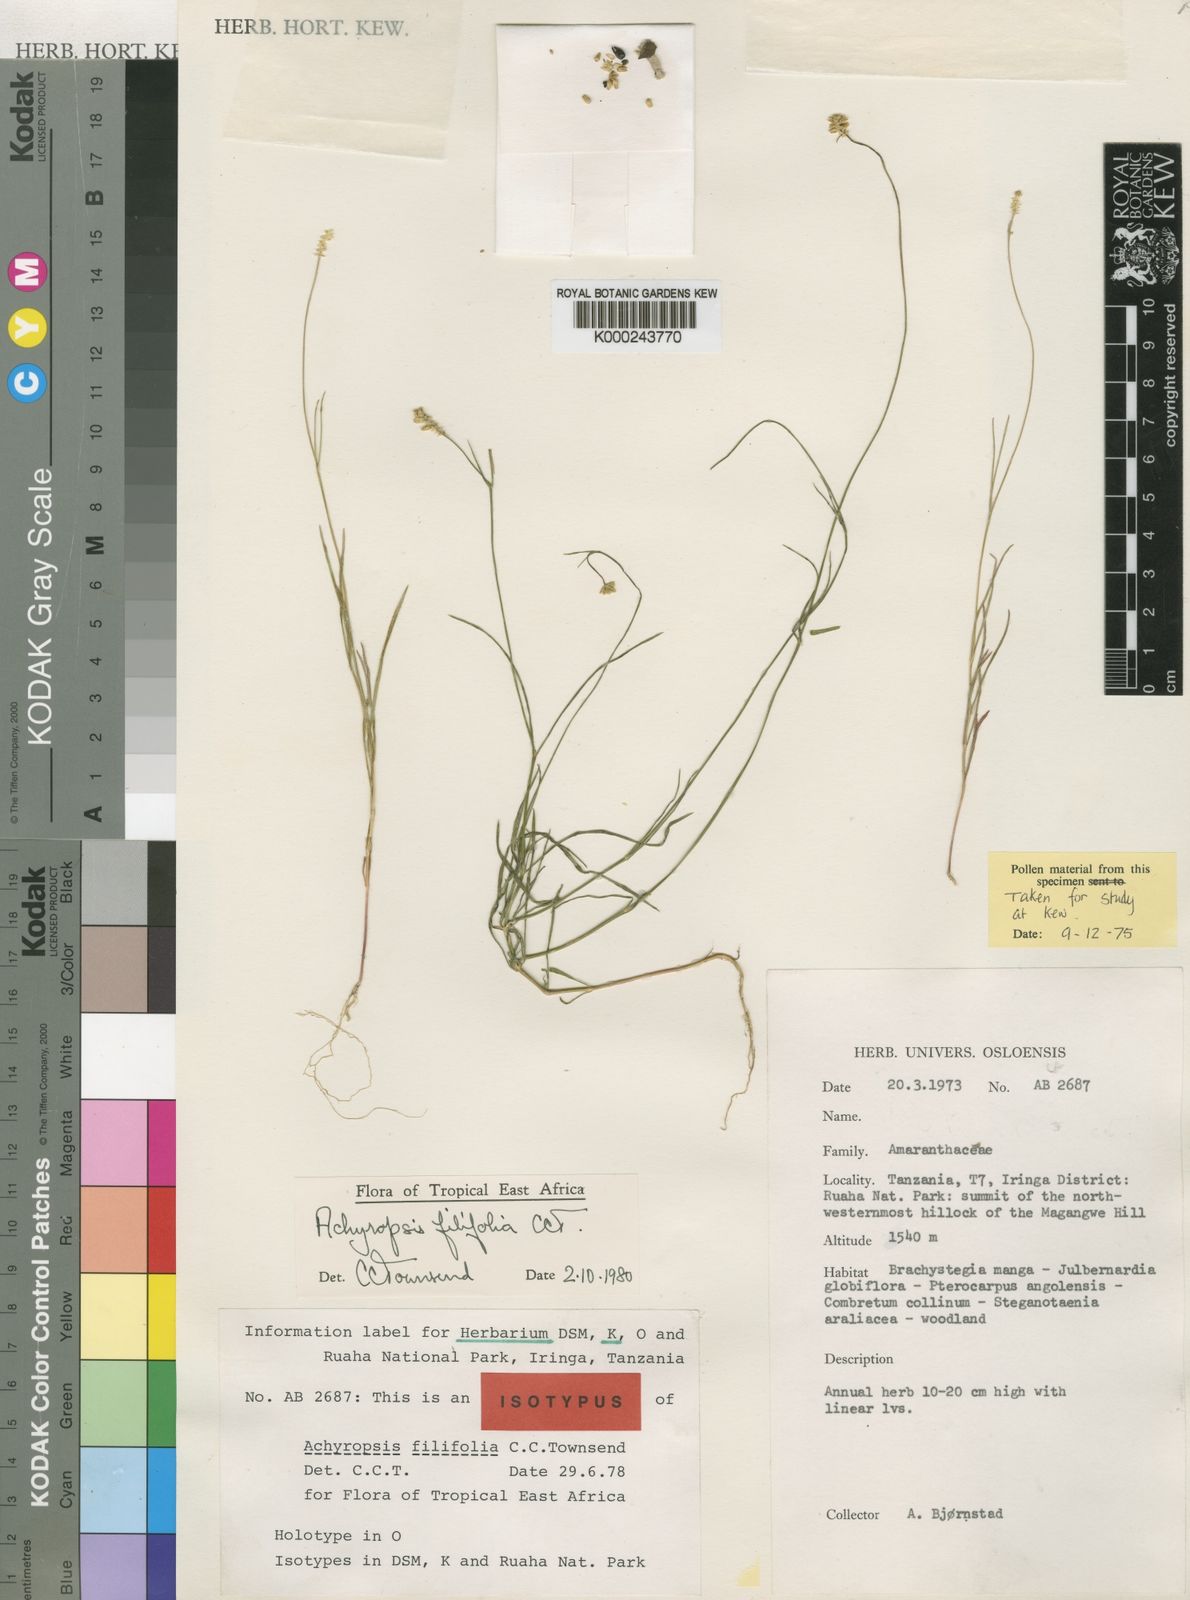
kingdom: Plantae
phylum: Tracheophyta
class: Magnoliopsida
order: Caryophyllales
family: Amaranthaceae
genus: Achyropsis
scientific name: Achyropsis filifolia
